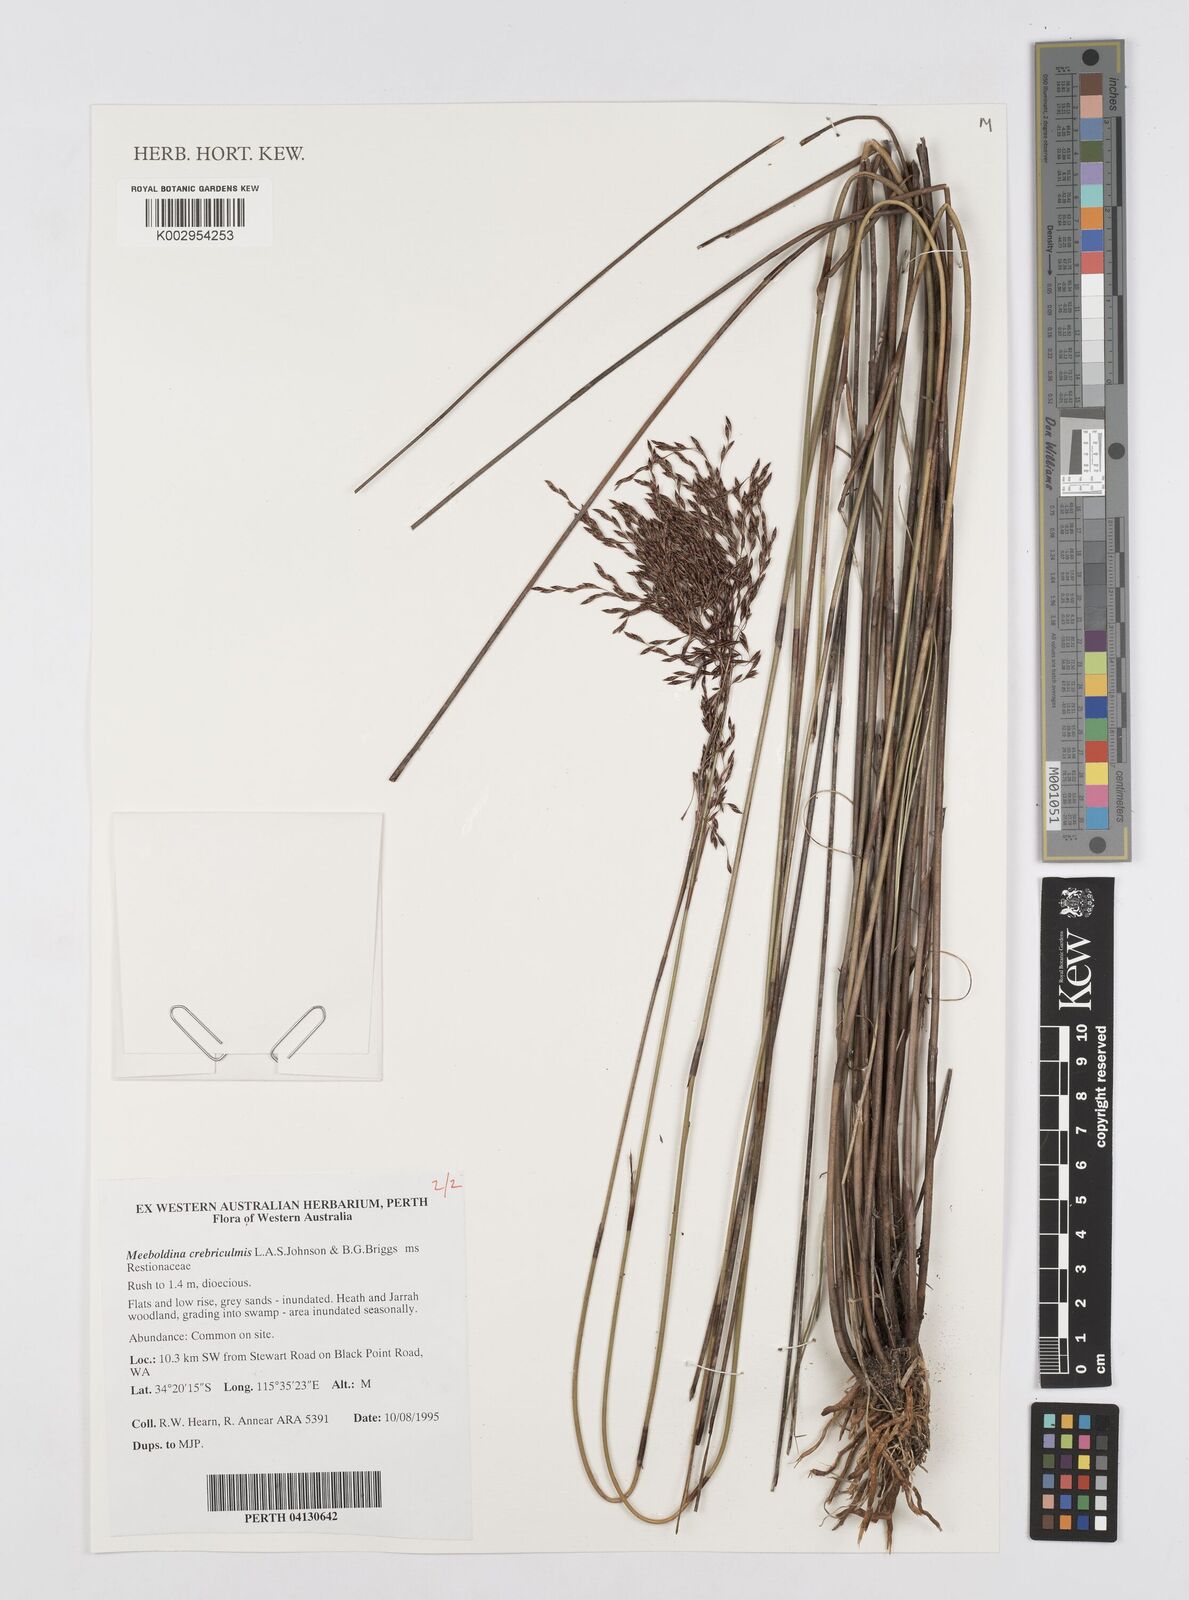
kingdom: Plantae
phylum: Tracheophyta
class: Liliopsida
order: Poales
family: Restionaceae
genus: Leptocarpus
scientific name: Leptocarpus crebriculmis
